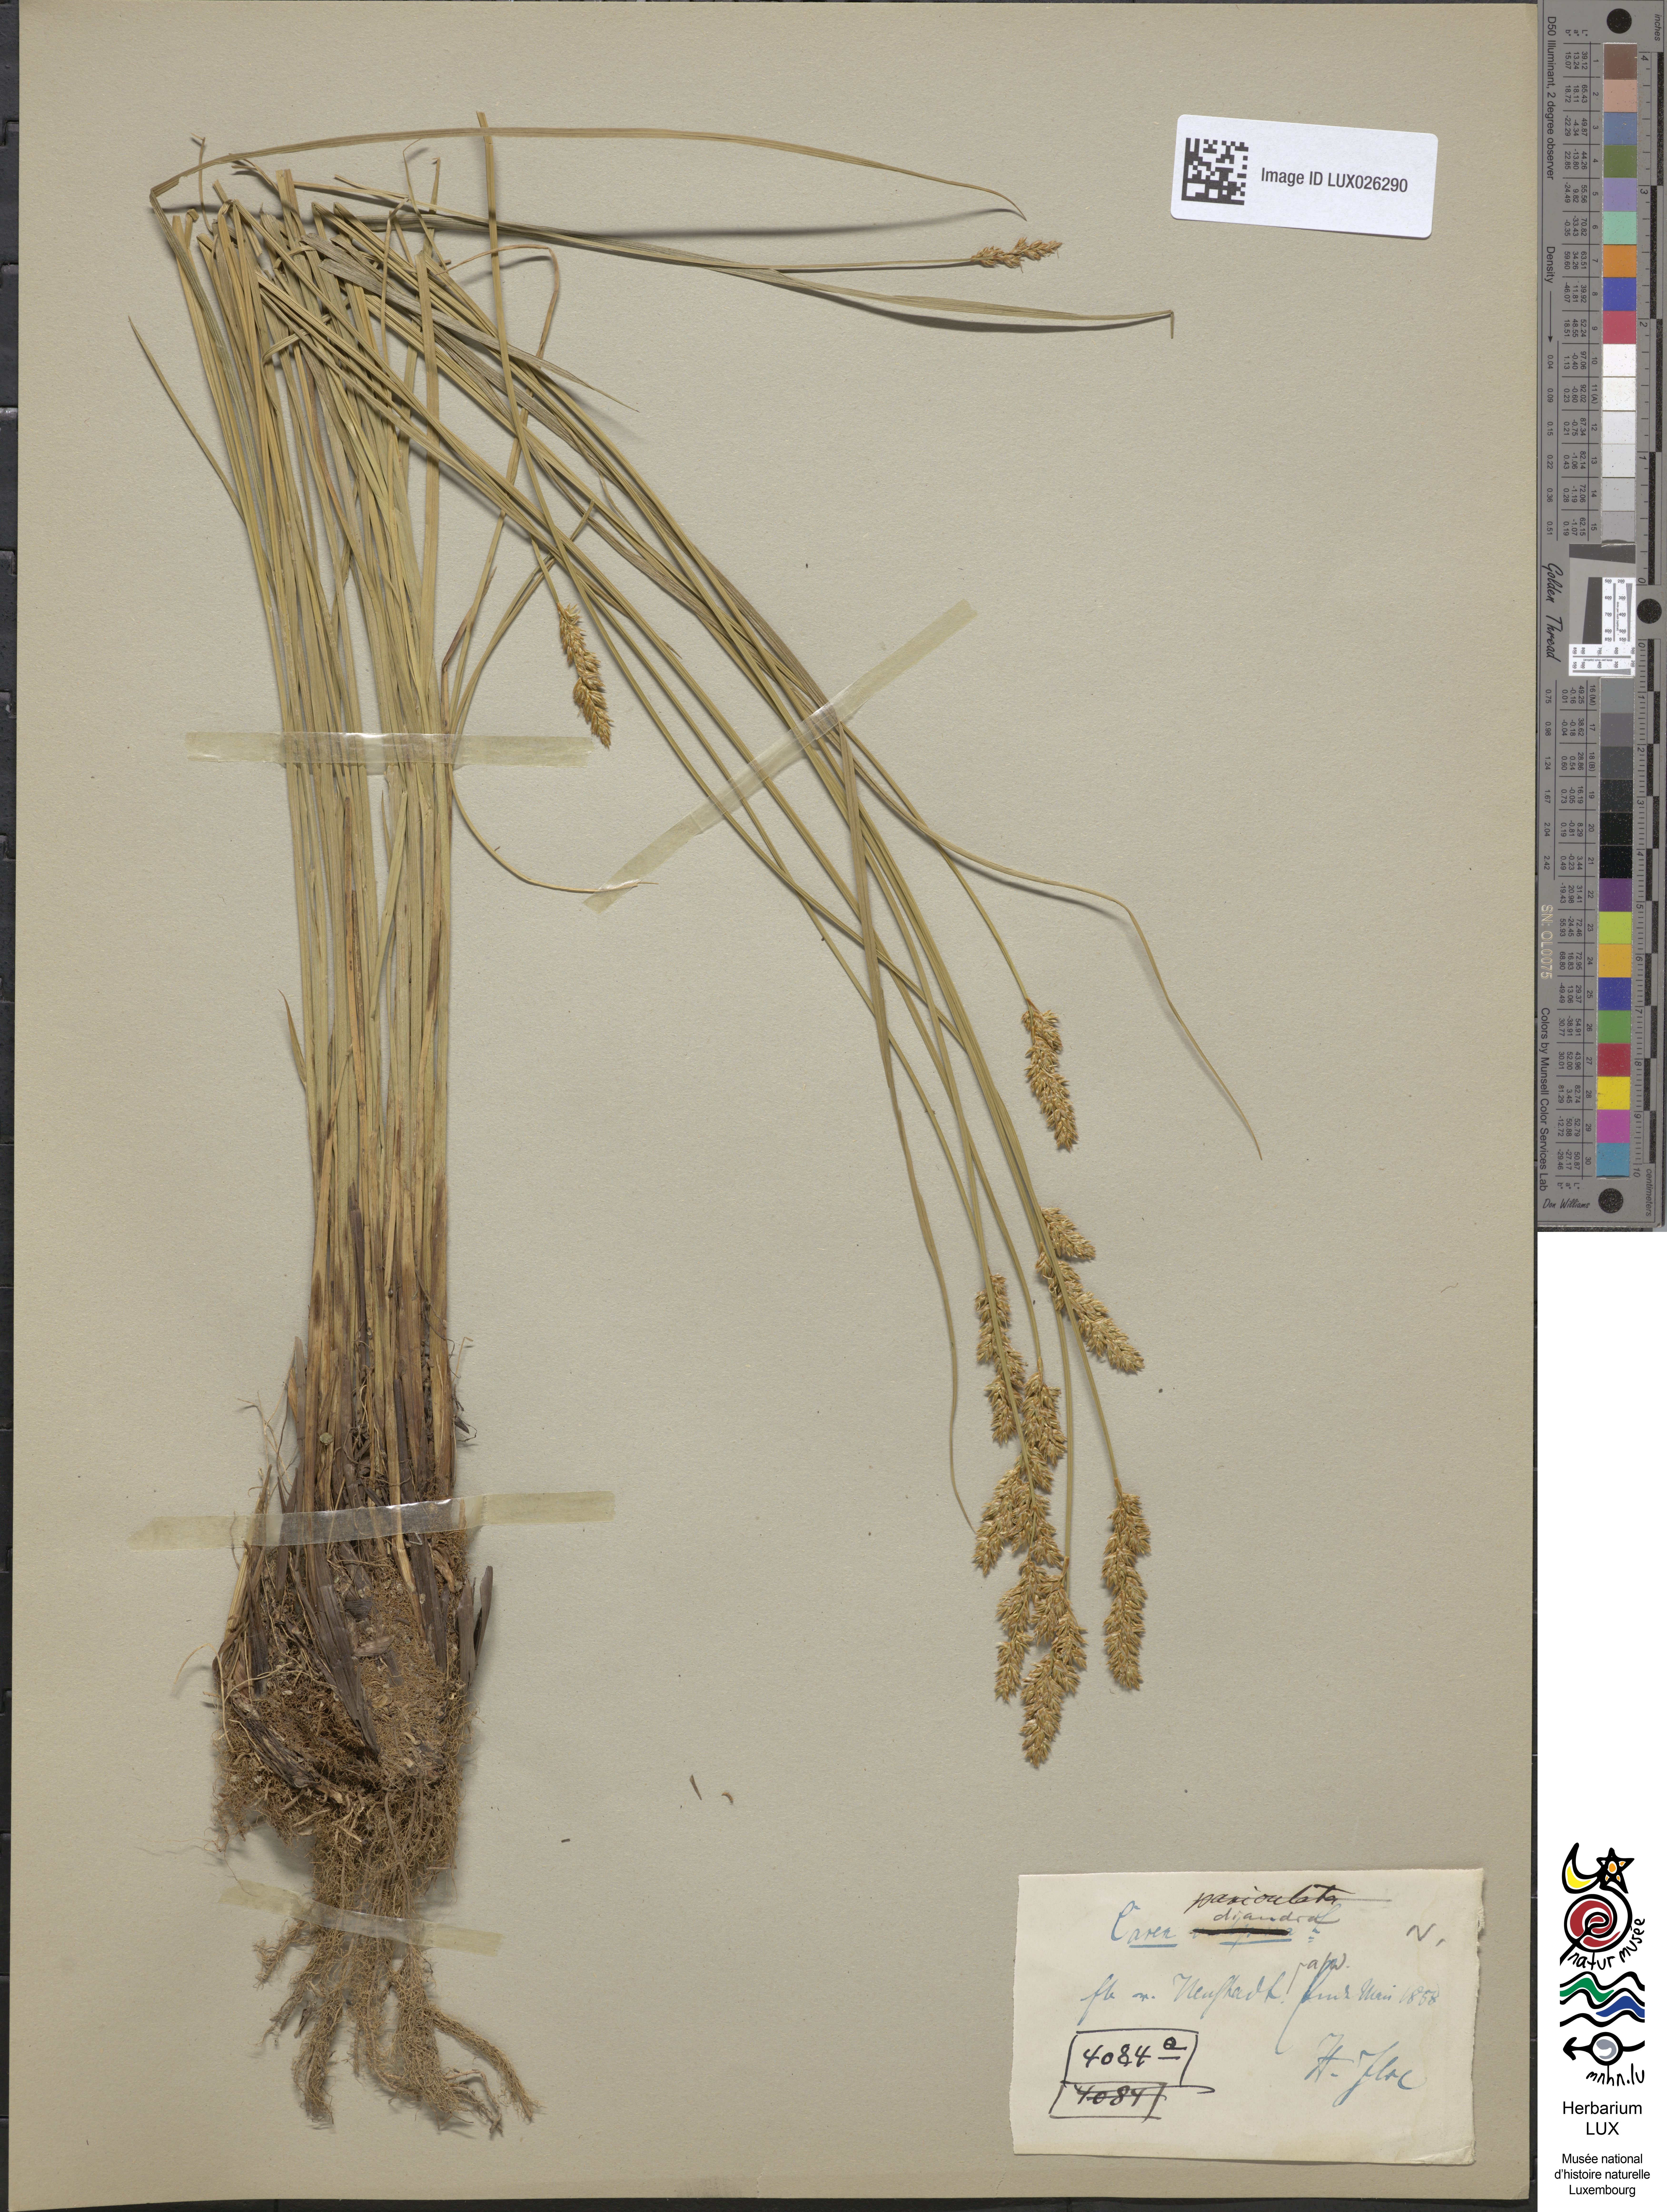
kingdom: Plantae
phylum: Tracheophyta
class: Liliopsida
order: Poales
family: Cyperaceae
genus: Carex
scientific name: Carex diandra
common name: Lesser tussock-sedge
